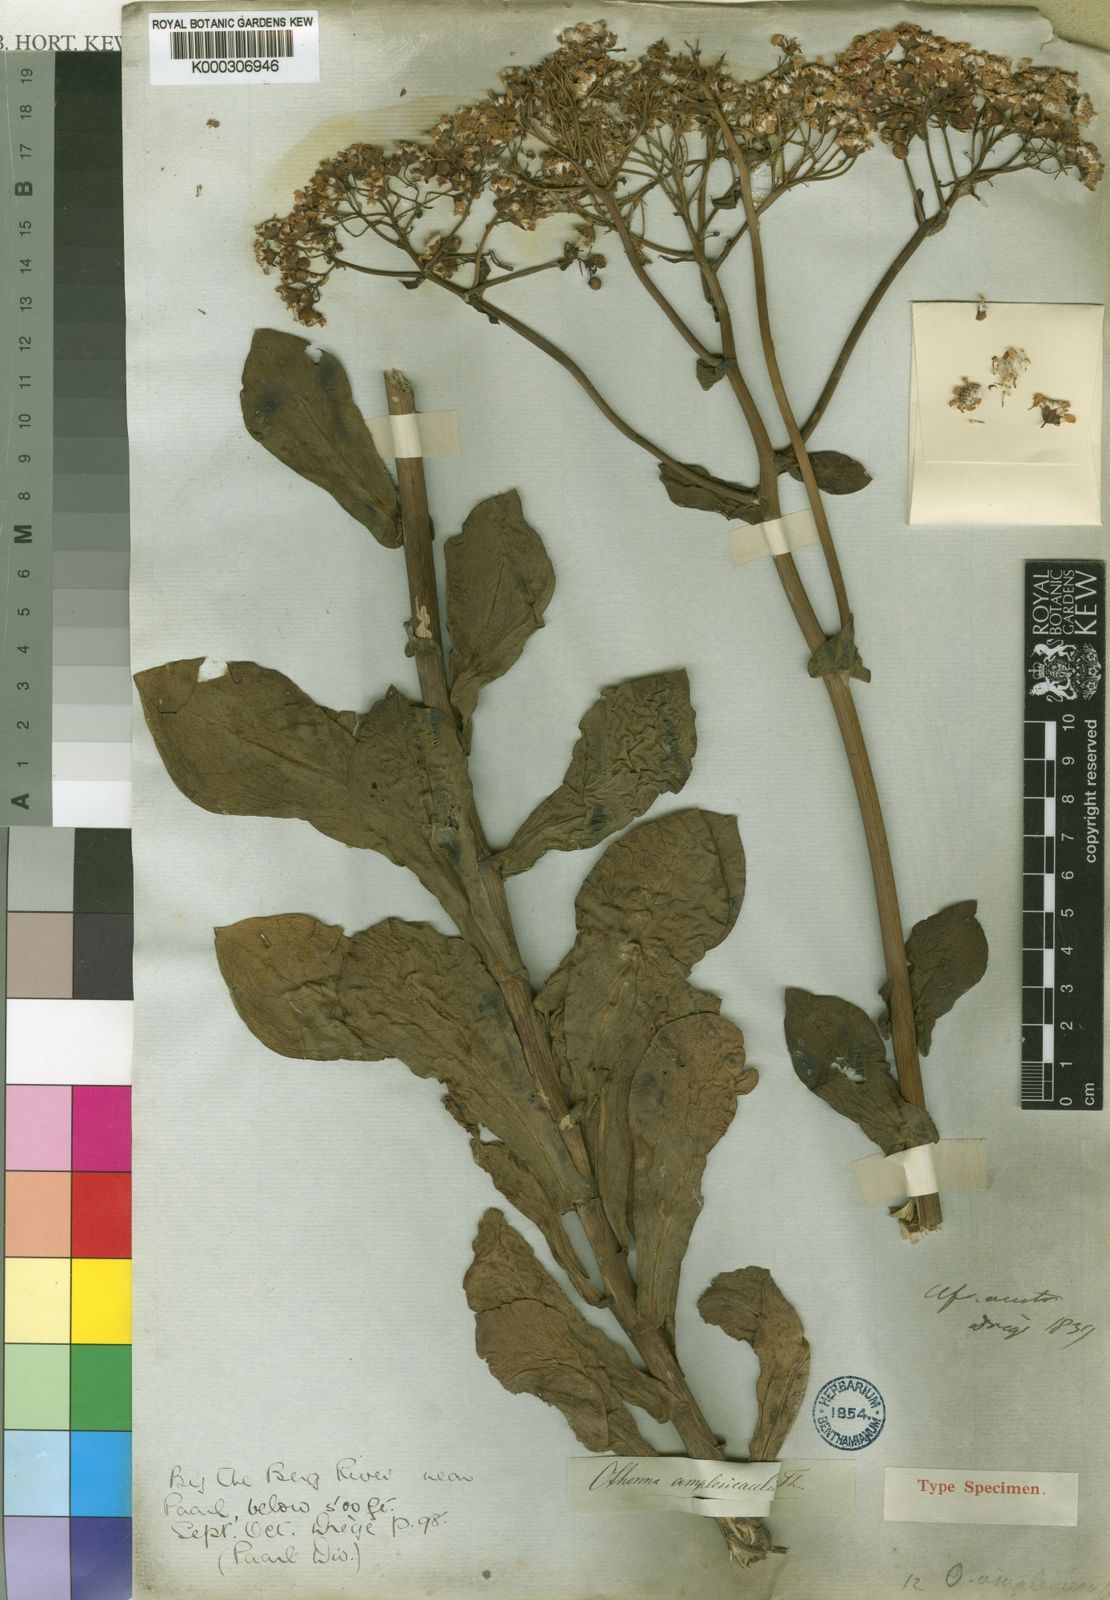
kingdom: Plantae
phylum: Tracheophyta
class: Magnoliopsida
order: Asterales
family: Asteraceae
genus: Othonna
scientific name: Othonna parviflora
